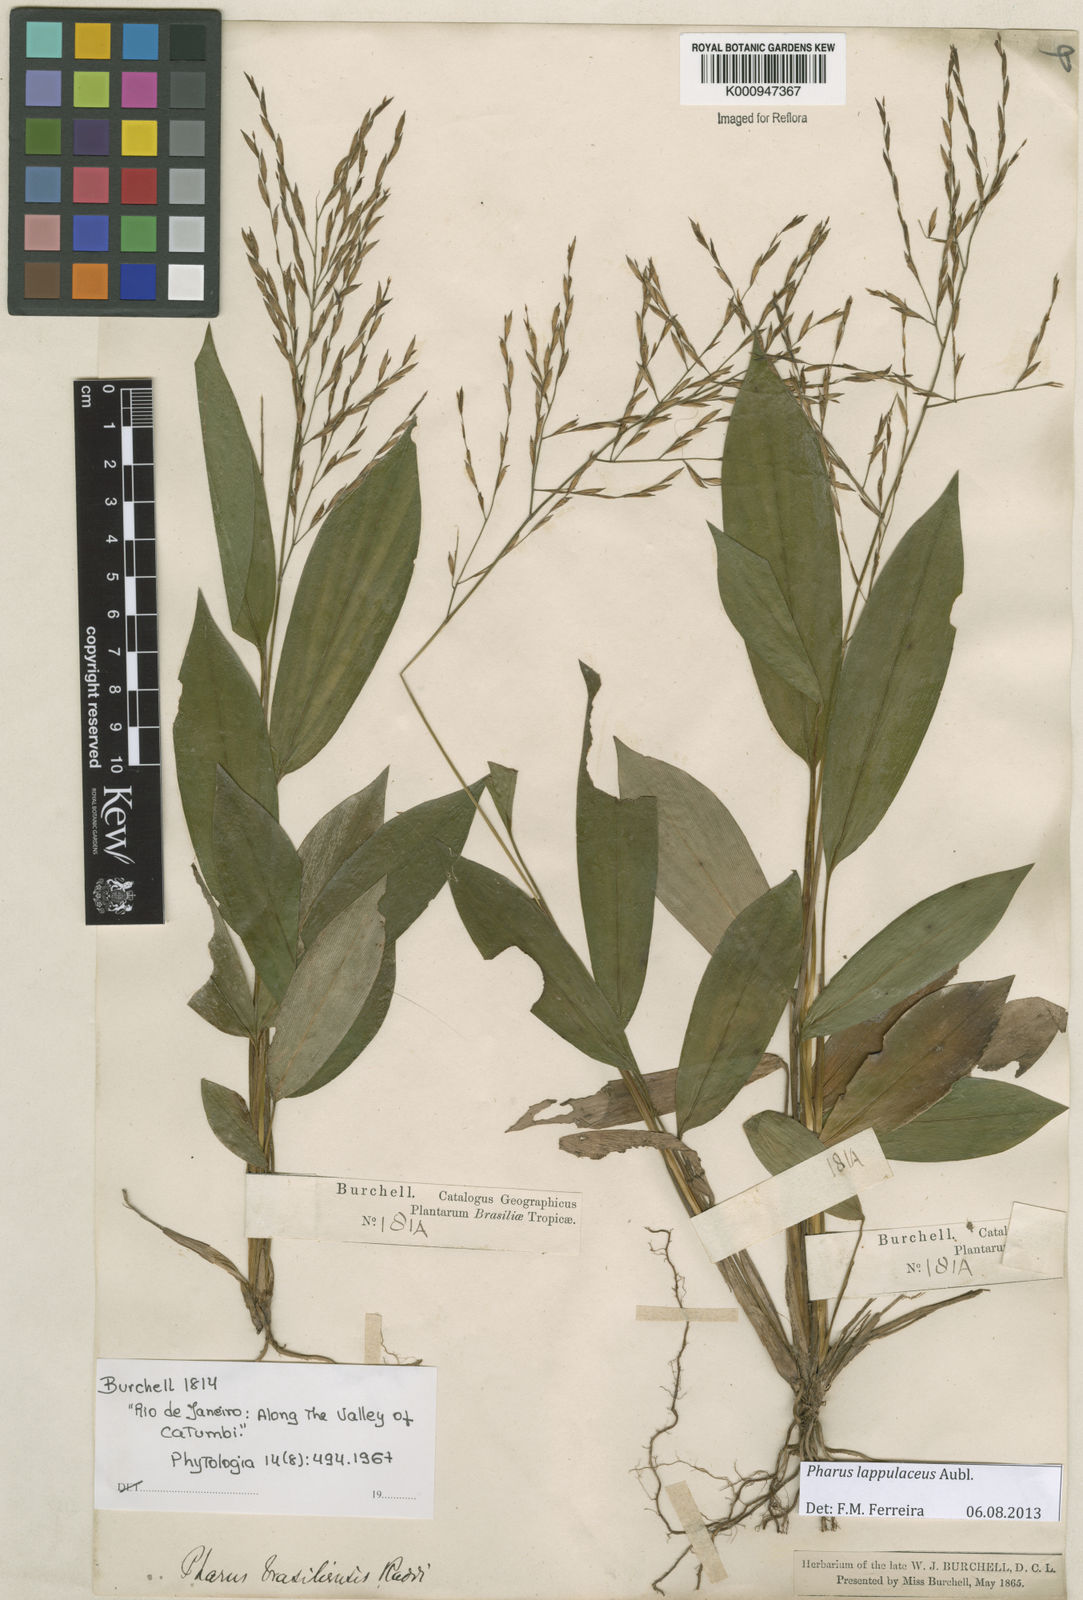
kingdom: Plantae
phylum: Tracheophyta
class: Liliopsida
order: Poales
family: Poaceae
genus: Pharus
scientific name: Pharus lappulaceus
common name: Creeping leafstalk grass
